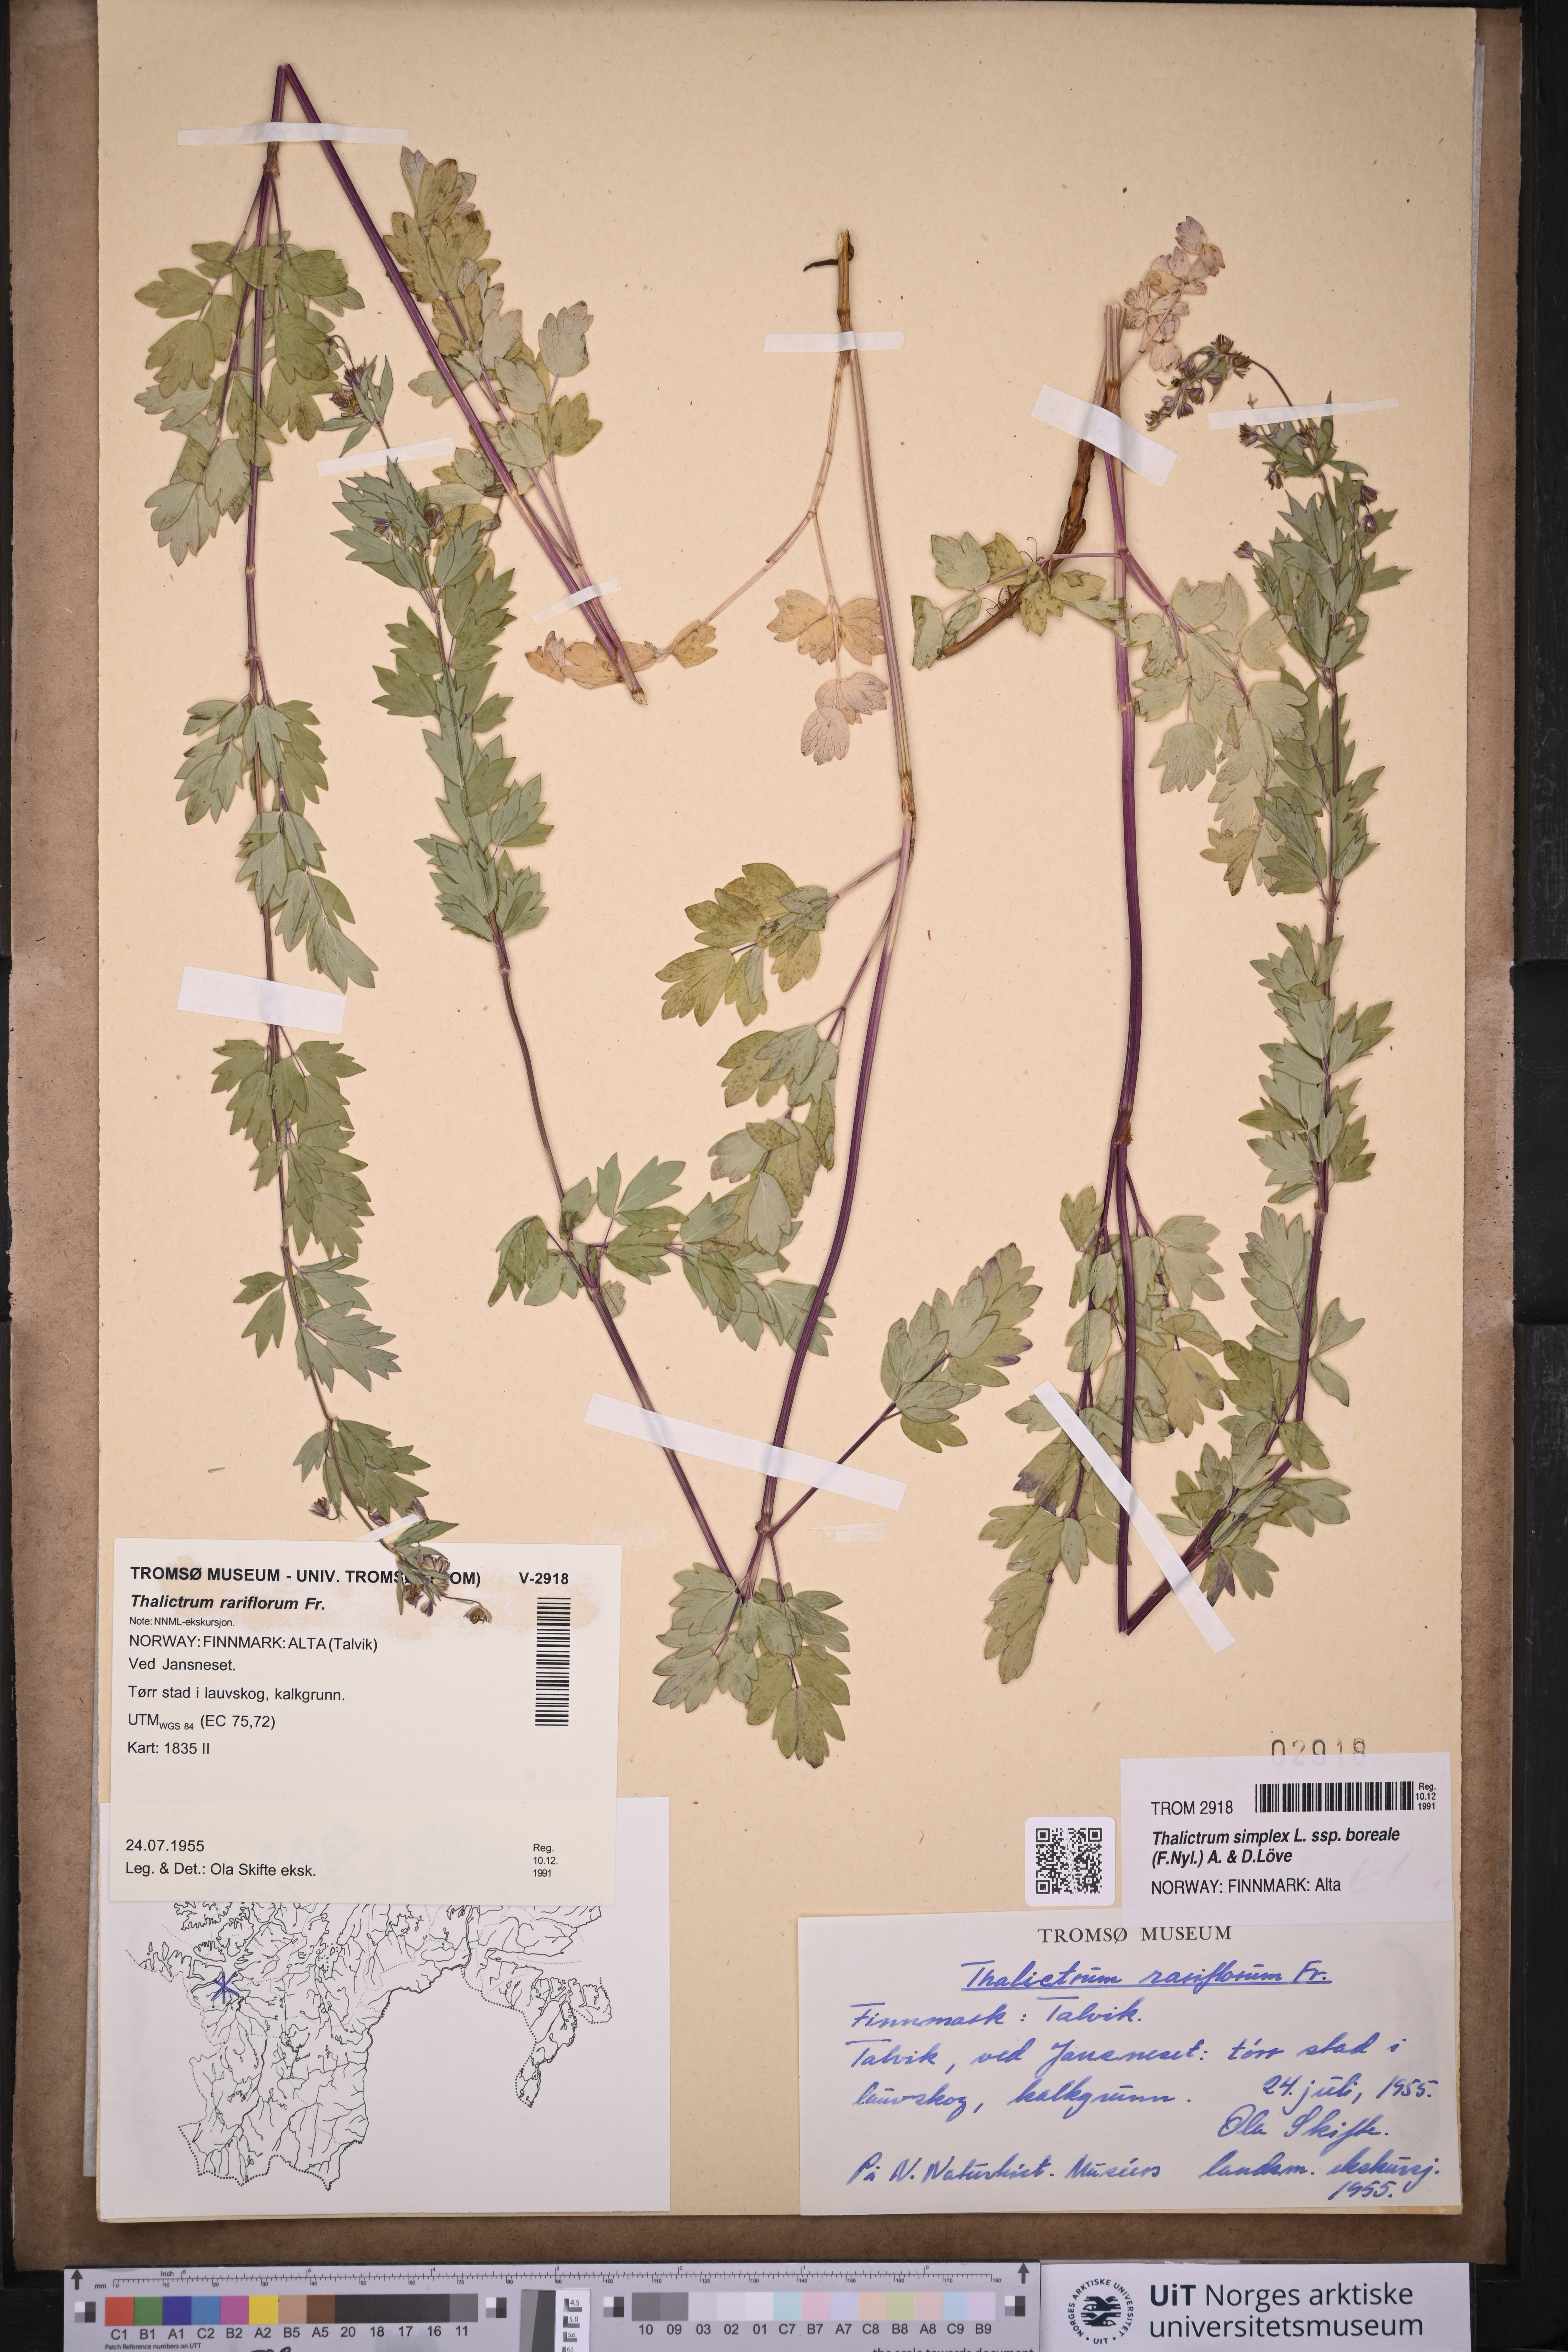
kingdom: Plantae
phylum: Tracheophyta
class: Magnoliopsida
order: Ranunculales
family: Ranunculaceae
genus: Thalictrum
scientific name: Thalictrum simplex
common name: Small meadow-rue
